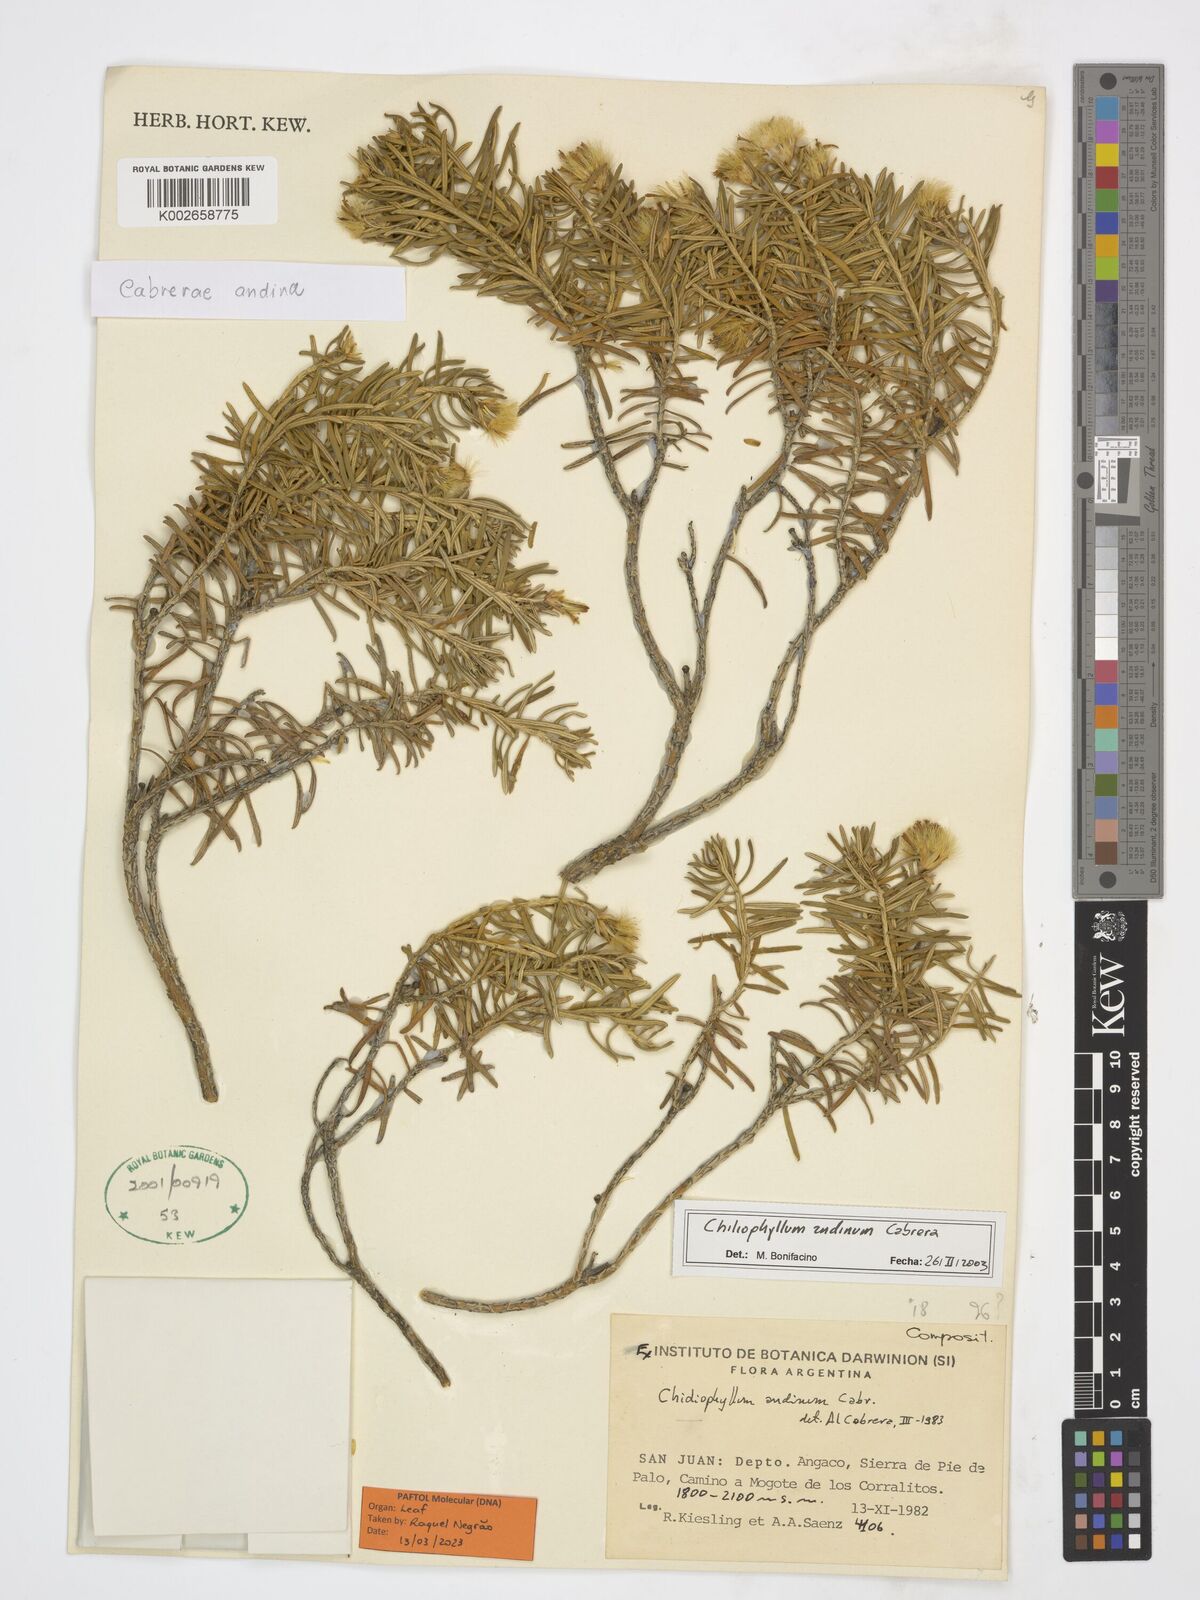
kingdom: Plantae
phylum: Tracheophyta
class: Magnoliopsida
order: Asterales
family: Asteraceae
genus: Cabreraea
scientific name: Cabreraea andina
